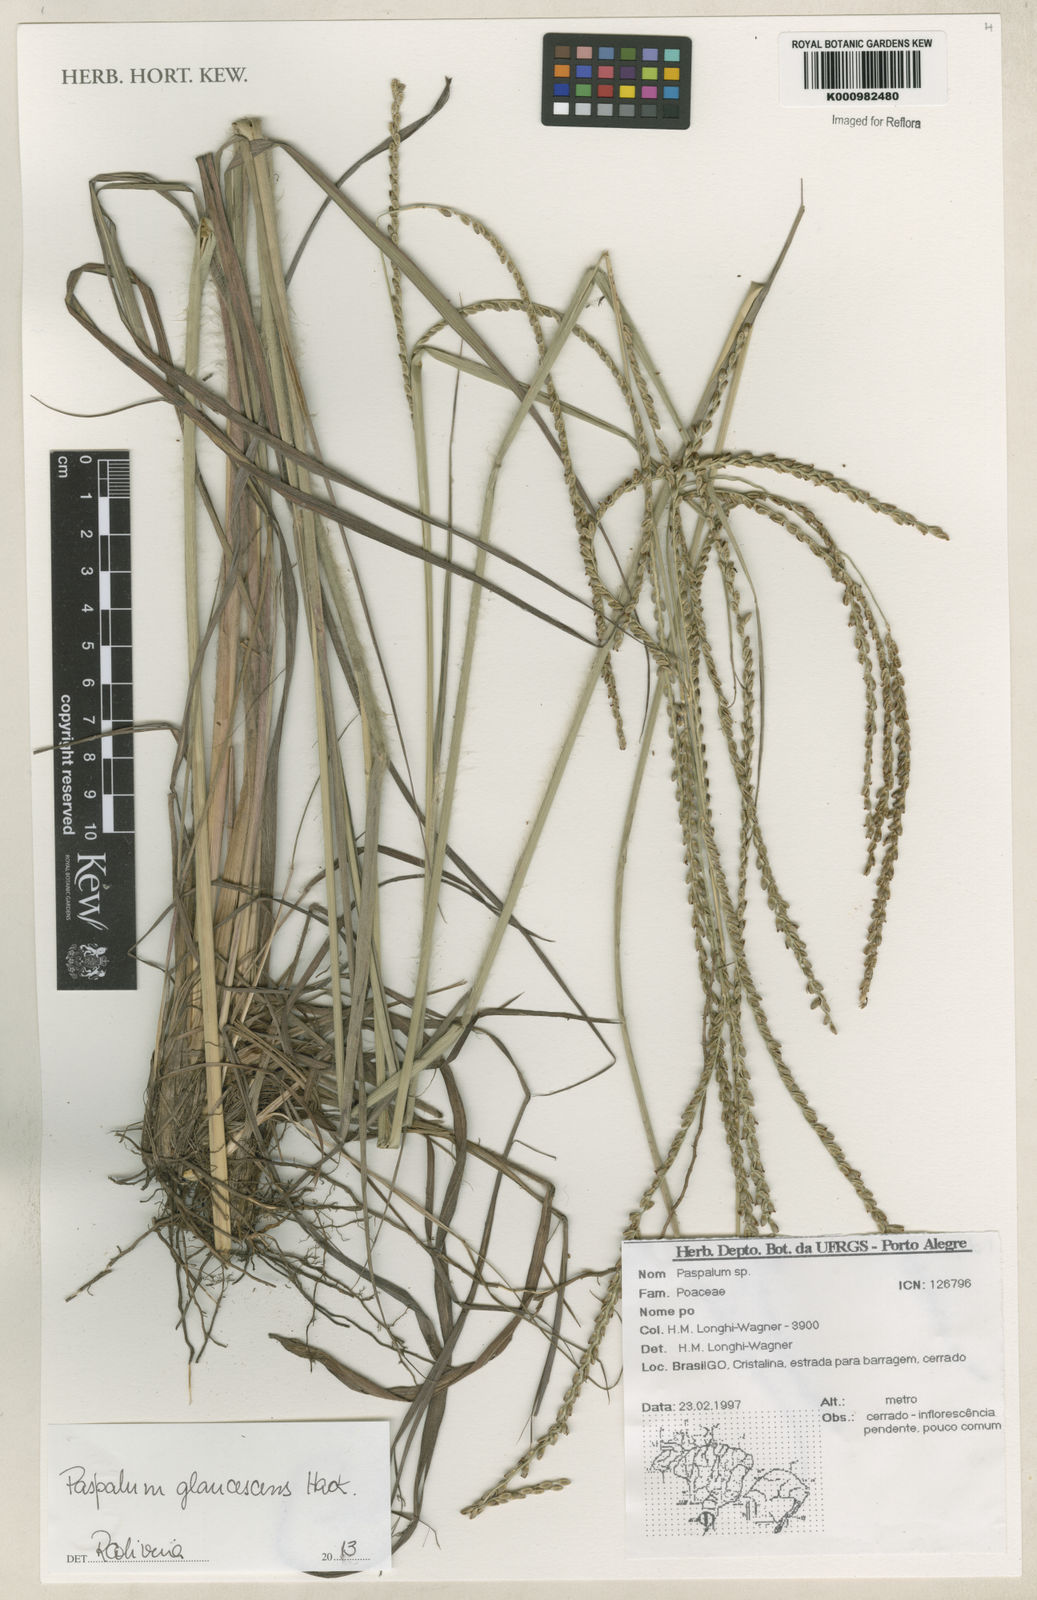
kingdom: Plantae
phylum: Tracheophyta
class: Liliopsida
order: Poales
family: Poaceae
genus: Paspalum
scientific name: Paspalum glaucescens
